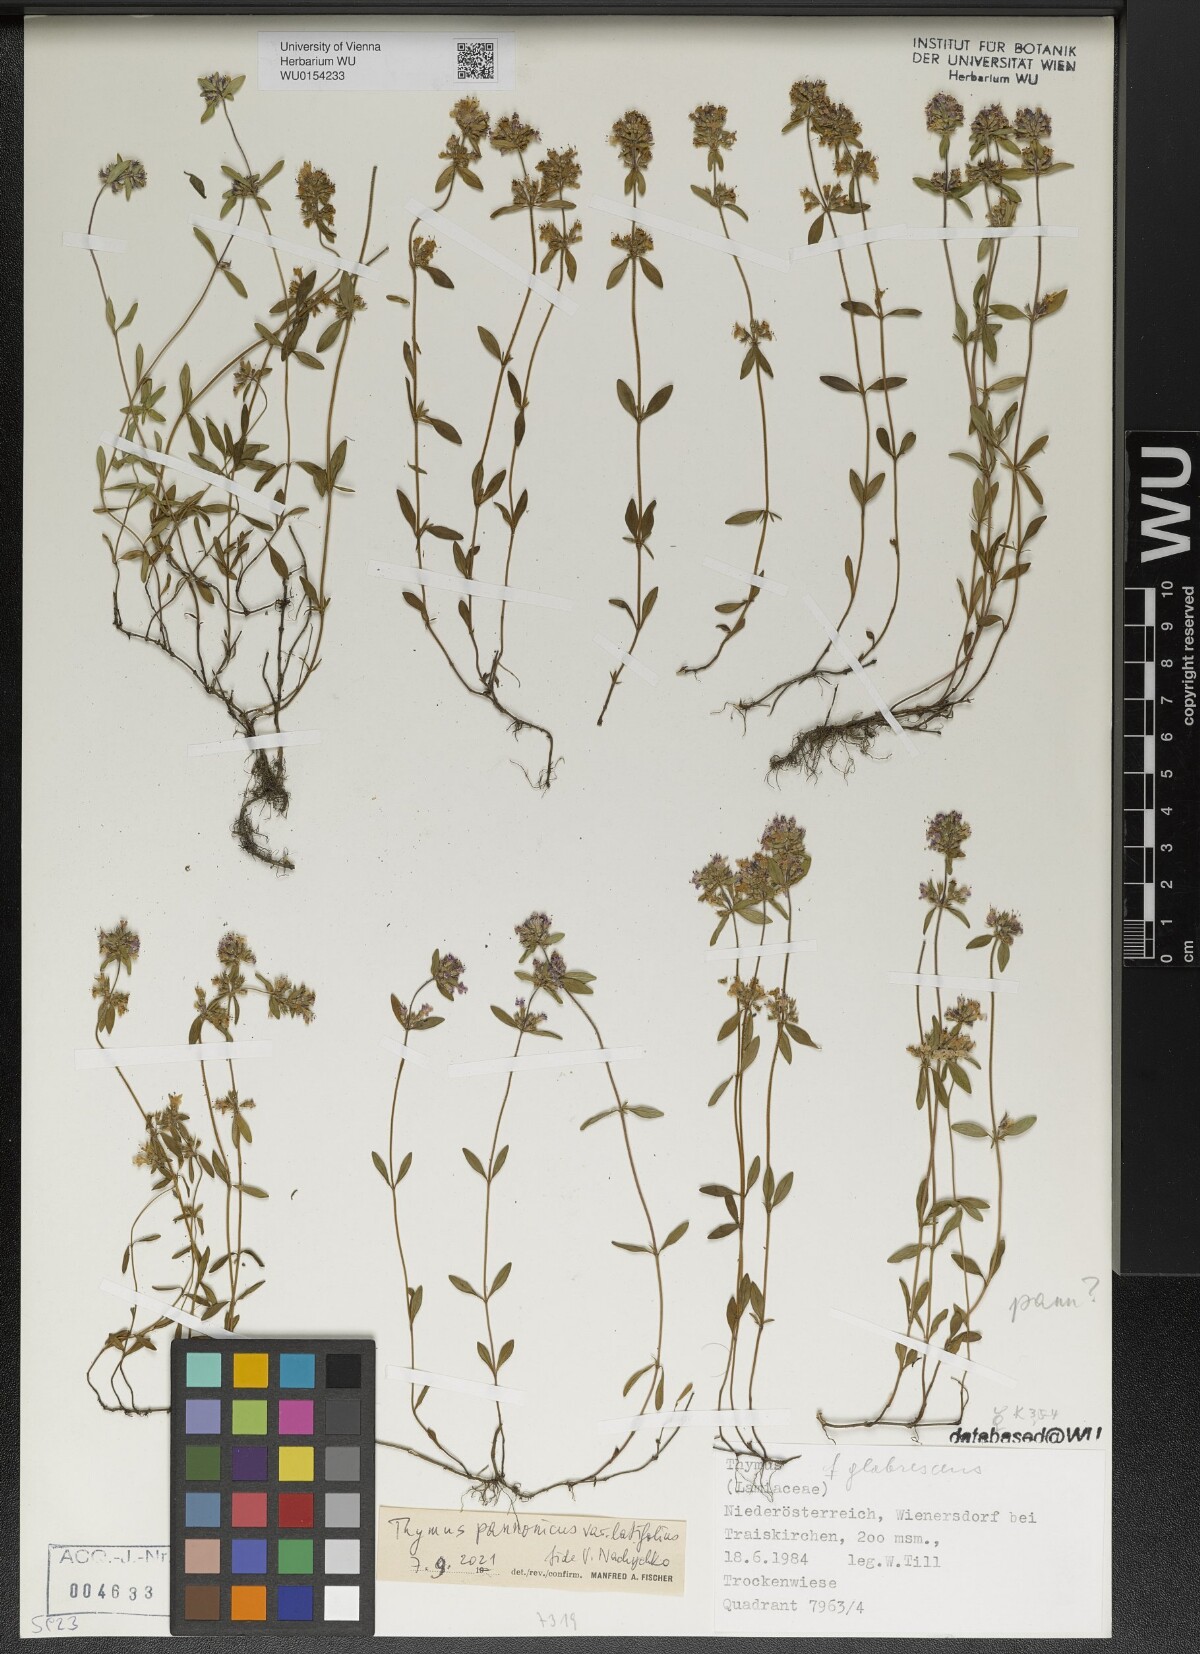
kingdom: Plantae
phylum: Tracheophyta
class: Magnoliopsida
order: Lamiales
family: Lamiaceae
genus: Thymus
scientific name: Thymus pannonicus
